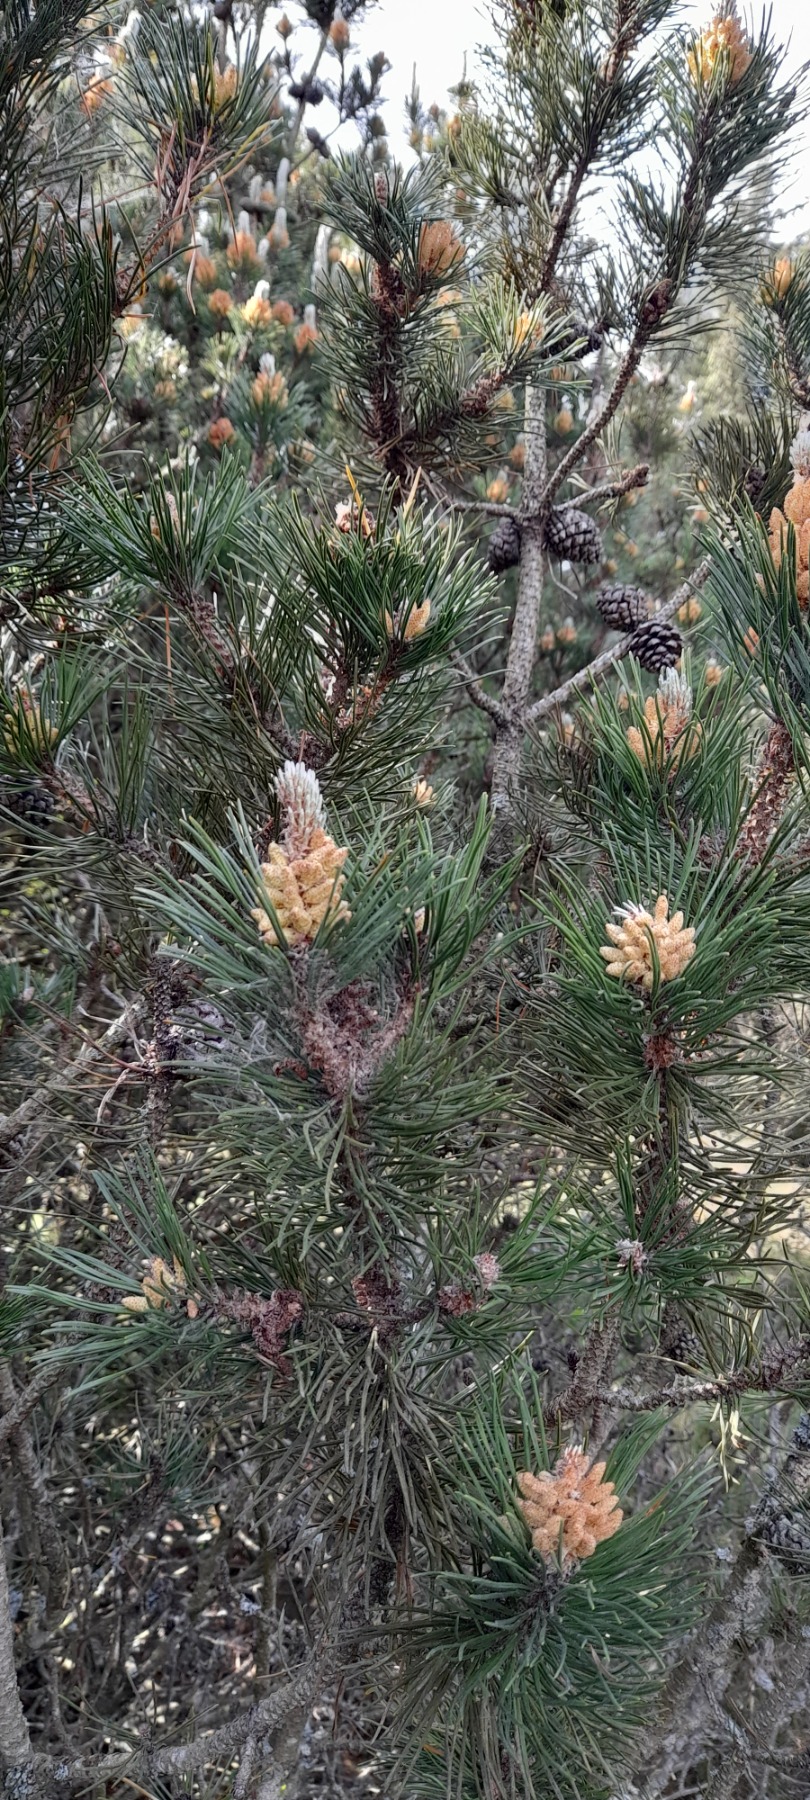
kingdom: Plantae
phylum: Tracheophyta
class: Pinopsida
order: Pinales
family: Pinaceae
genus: Pinus
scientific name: Pinus sylvestris
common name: Skov-fyr
